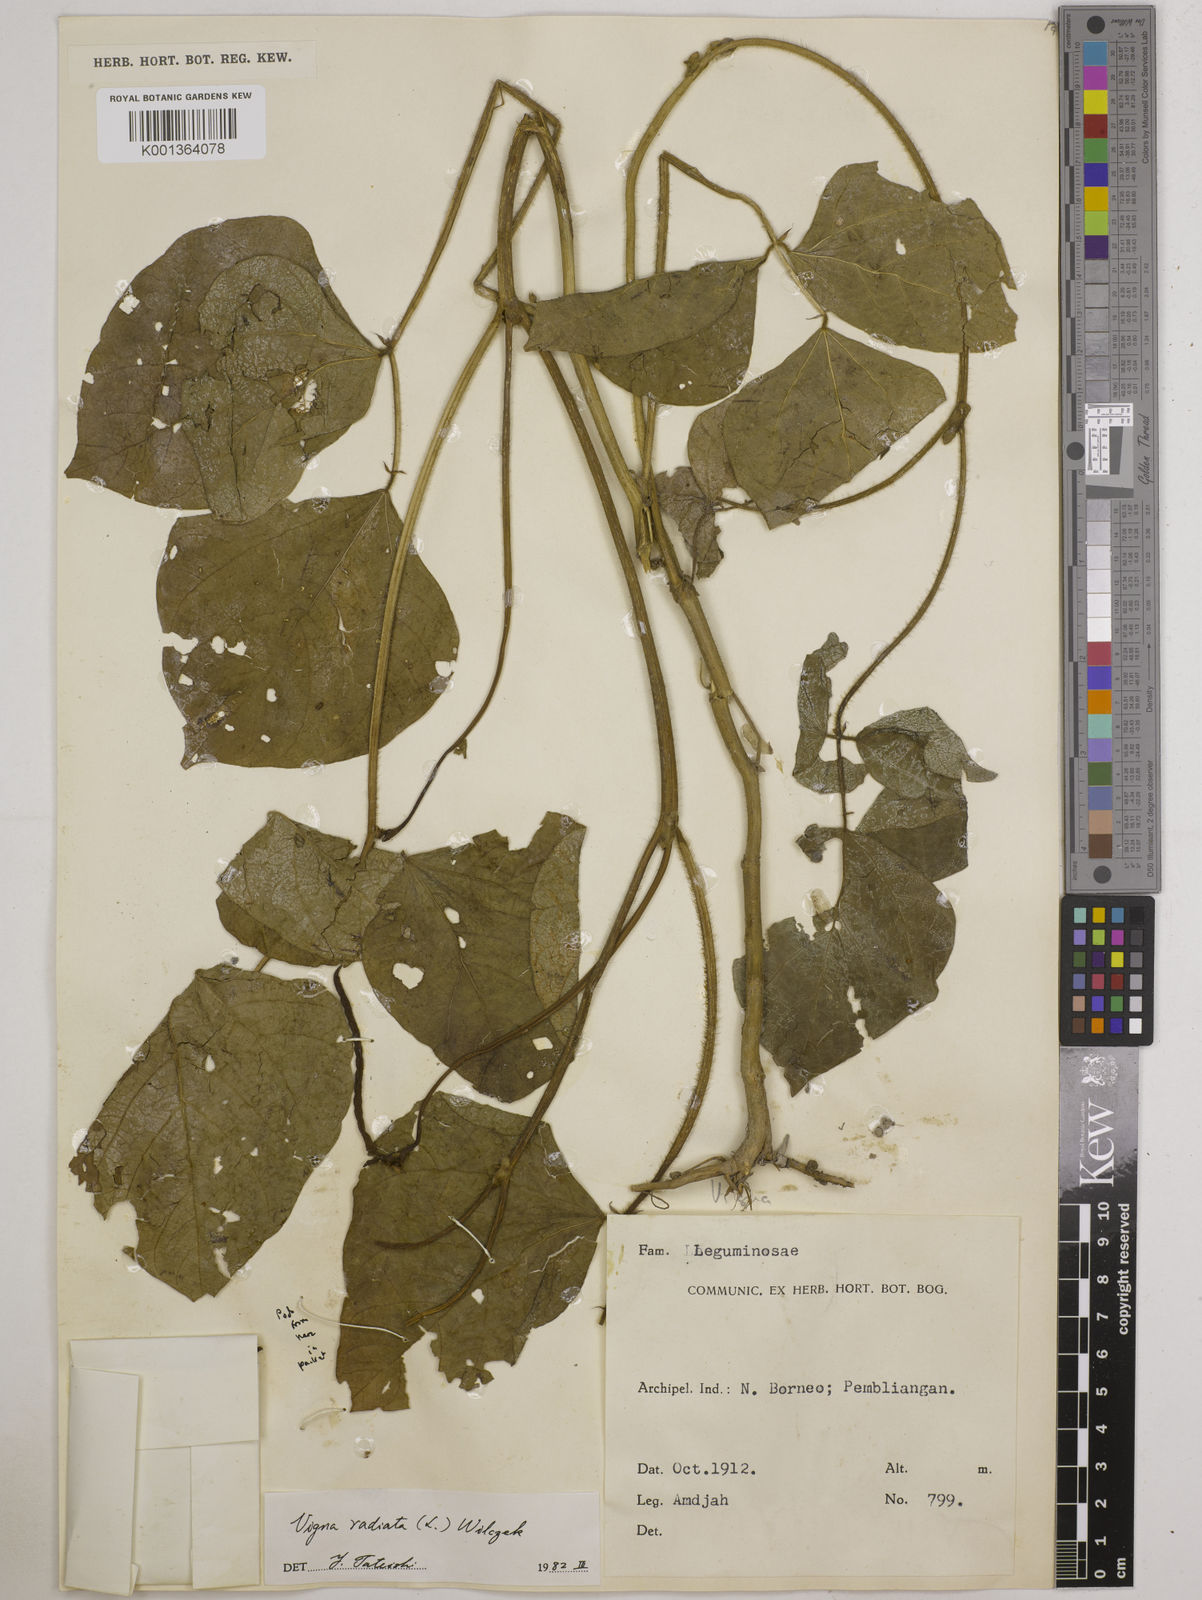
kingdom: Plantae
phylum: Tracheophyta
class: Magnoliopsida
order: Fabales
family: Fabaceae
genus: Vigna
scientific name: Vigna radiata
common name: Mung-bean
